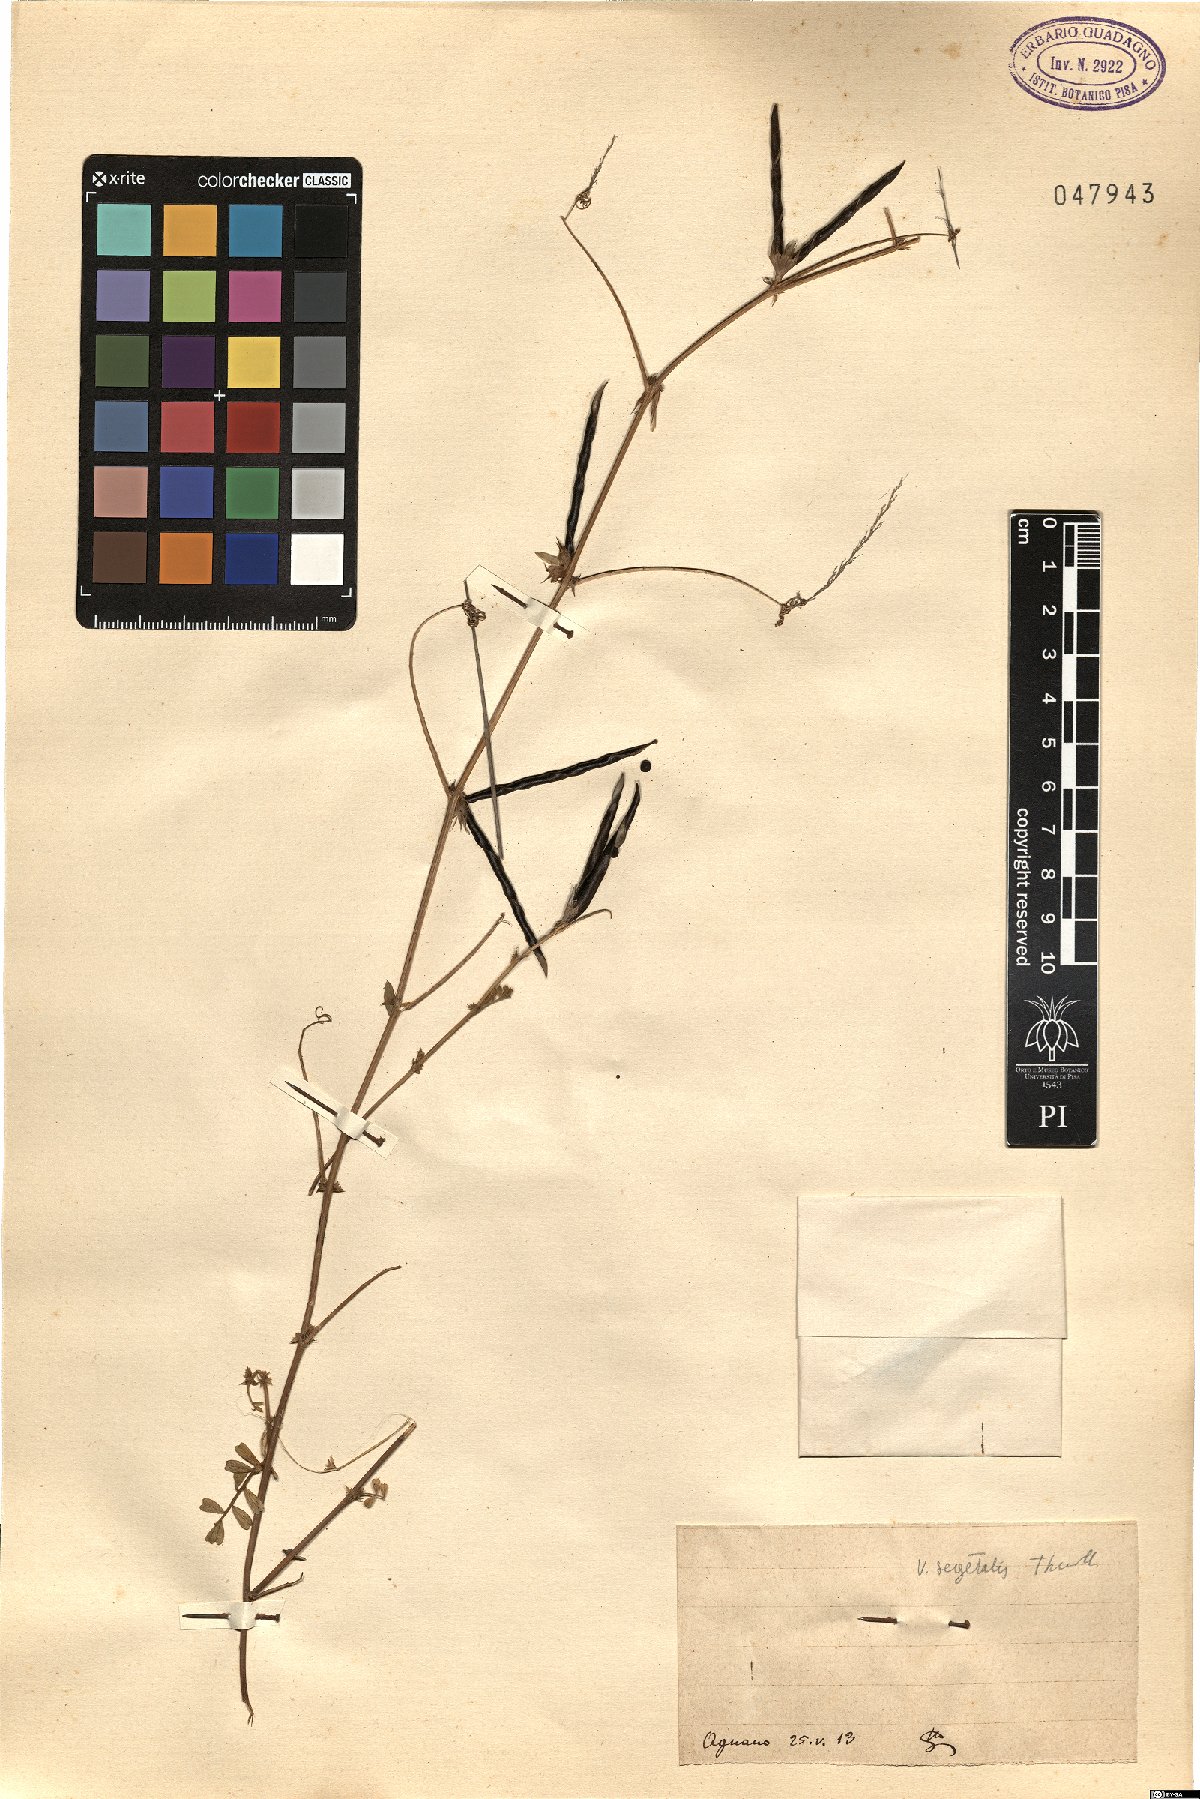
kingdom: Plantae
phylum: Tracheophyta
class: Magnoliopsida
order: Fabales
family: Fabaceae
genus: Vicia
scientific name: Vicia sativa
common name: Garden vetch
